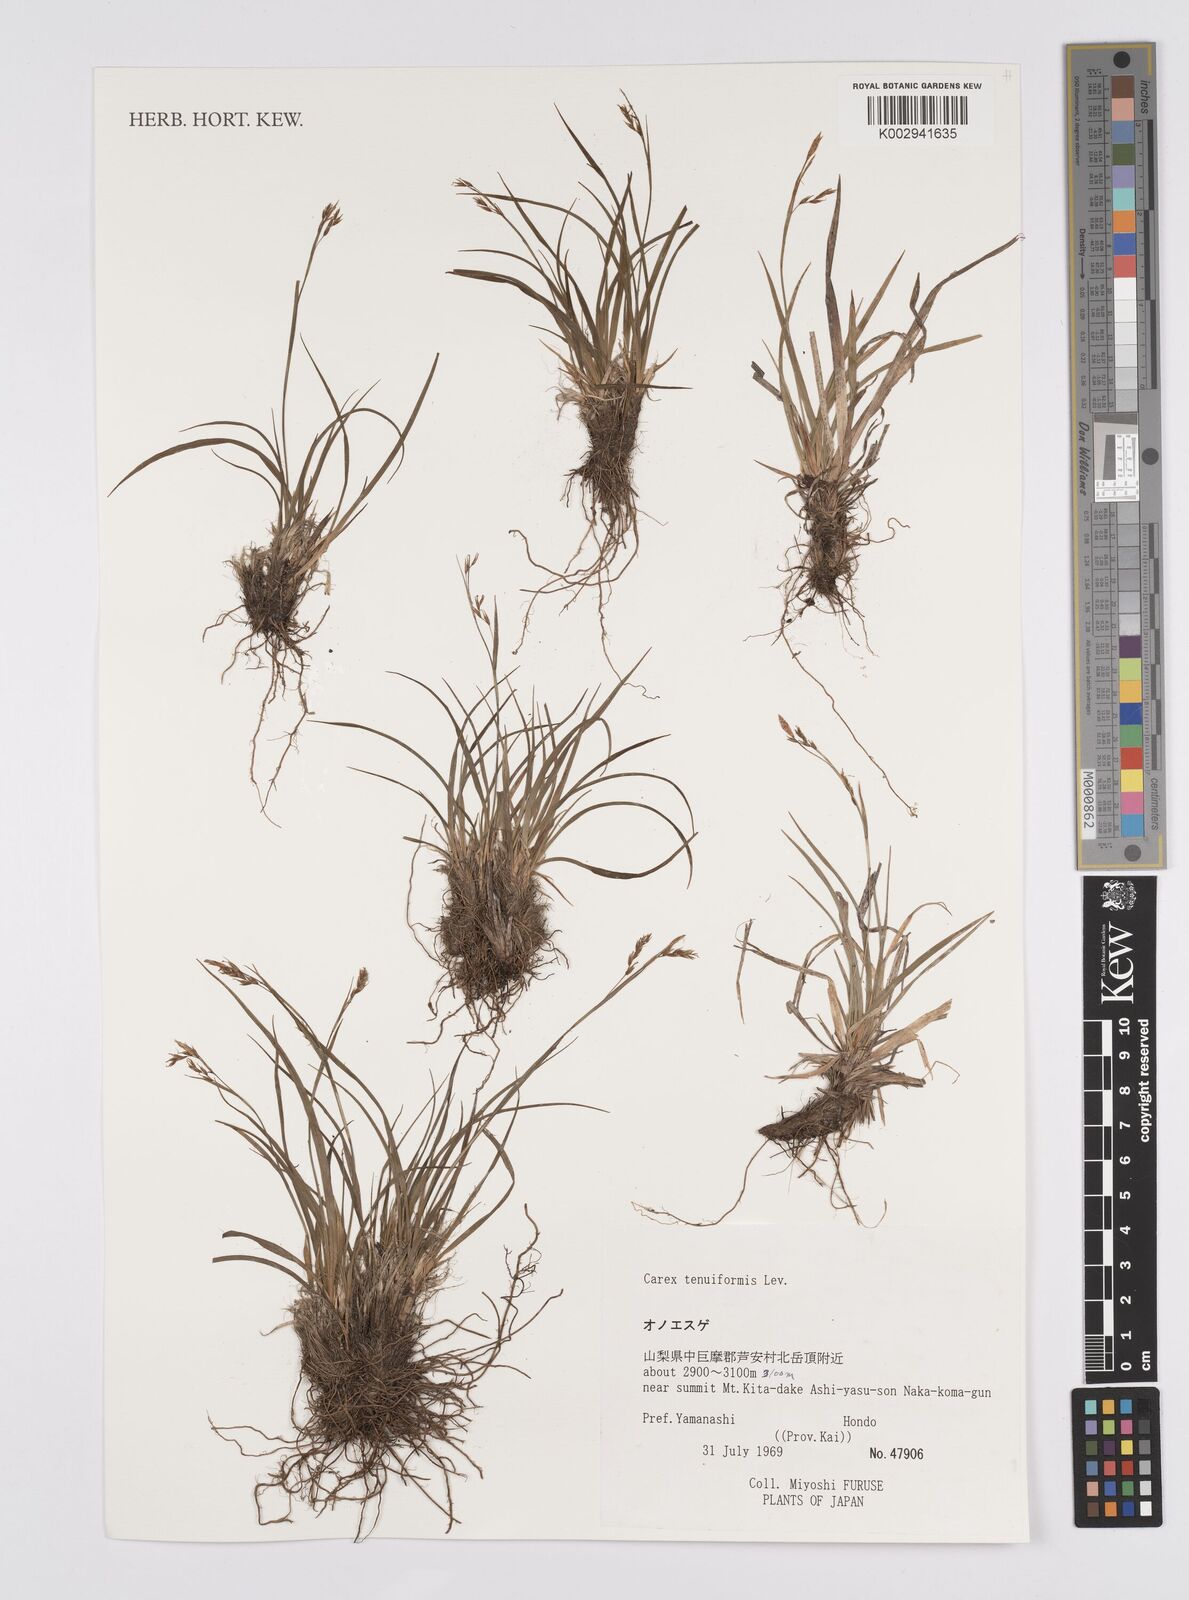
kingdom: Plantae
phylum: Tracheophyta
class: Liliopsida
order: Poales
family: Cyperaceae
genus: Carex
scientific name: Carex tenuiformis
